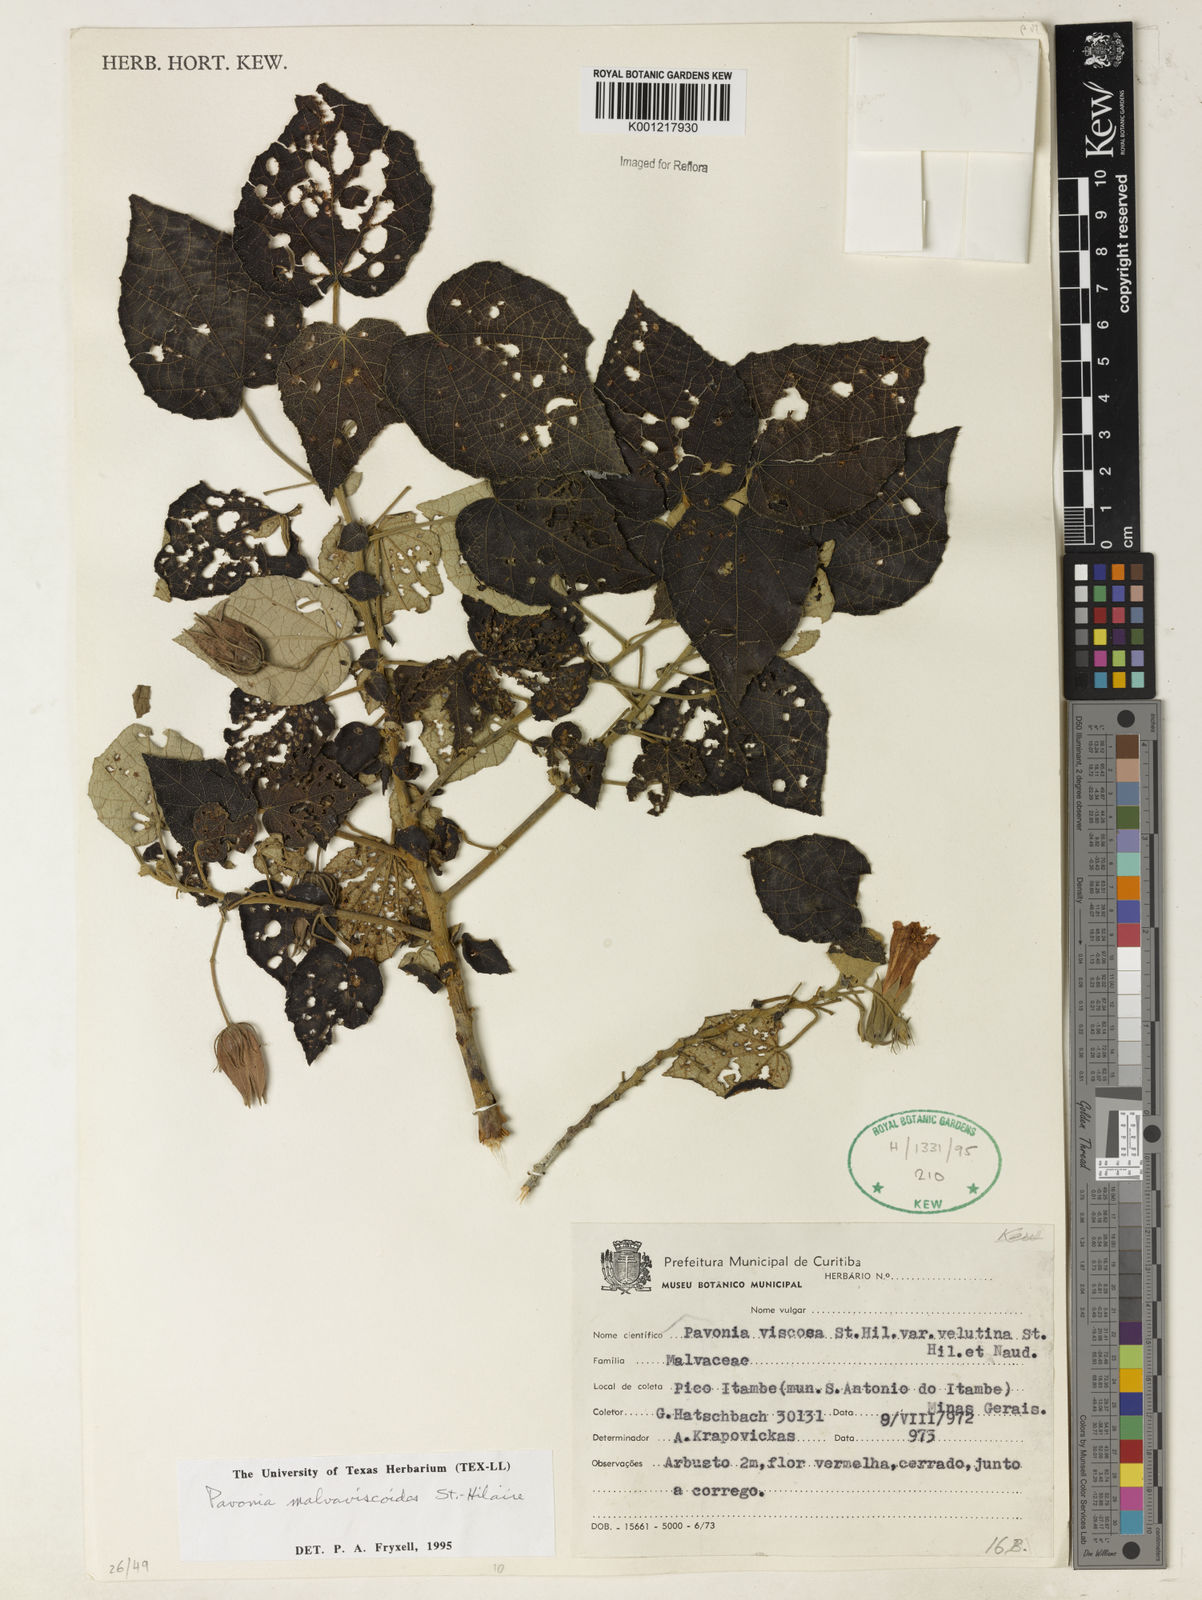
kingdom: Plantae
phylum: Tracheophyta
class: Magnoliopsida
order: Malvales
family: Malvaceae
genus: Pavonia
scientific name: Pavonia malvaviscoides
